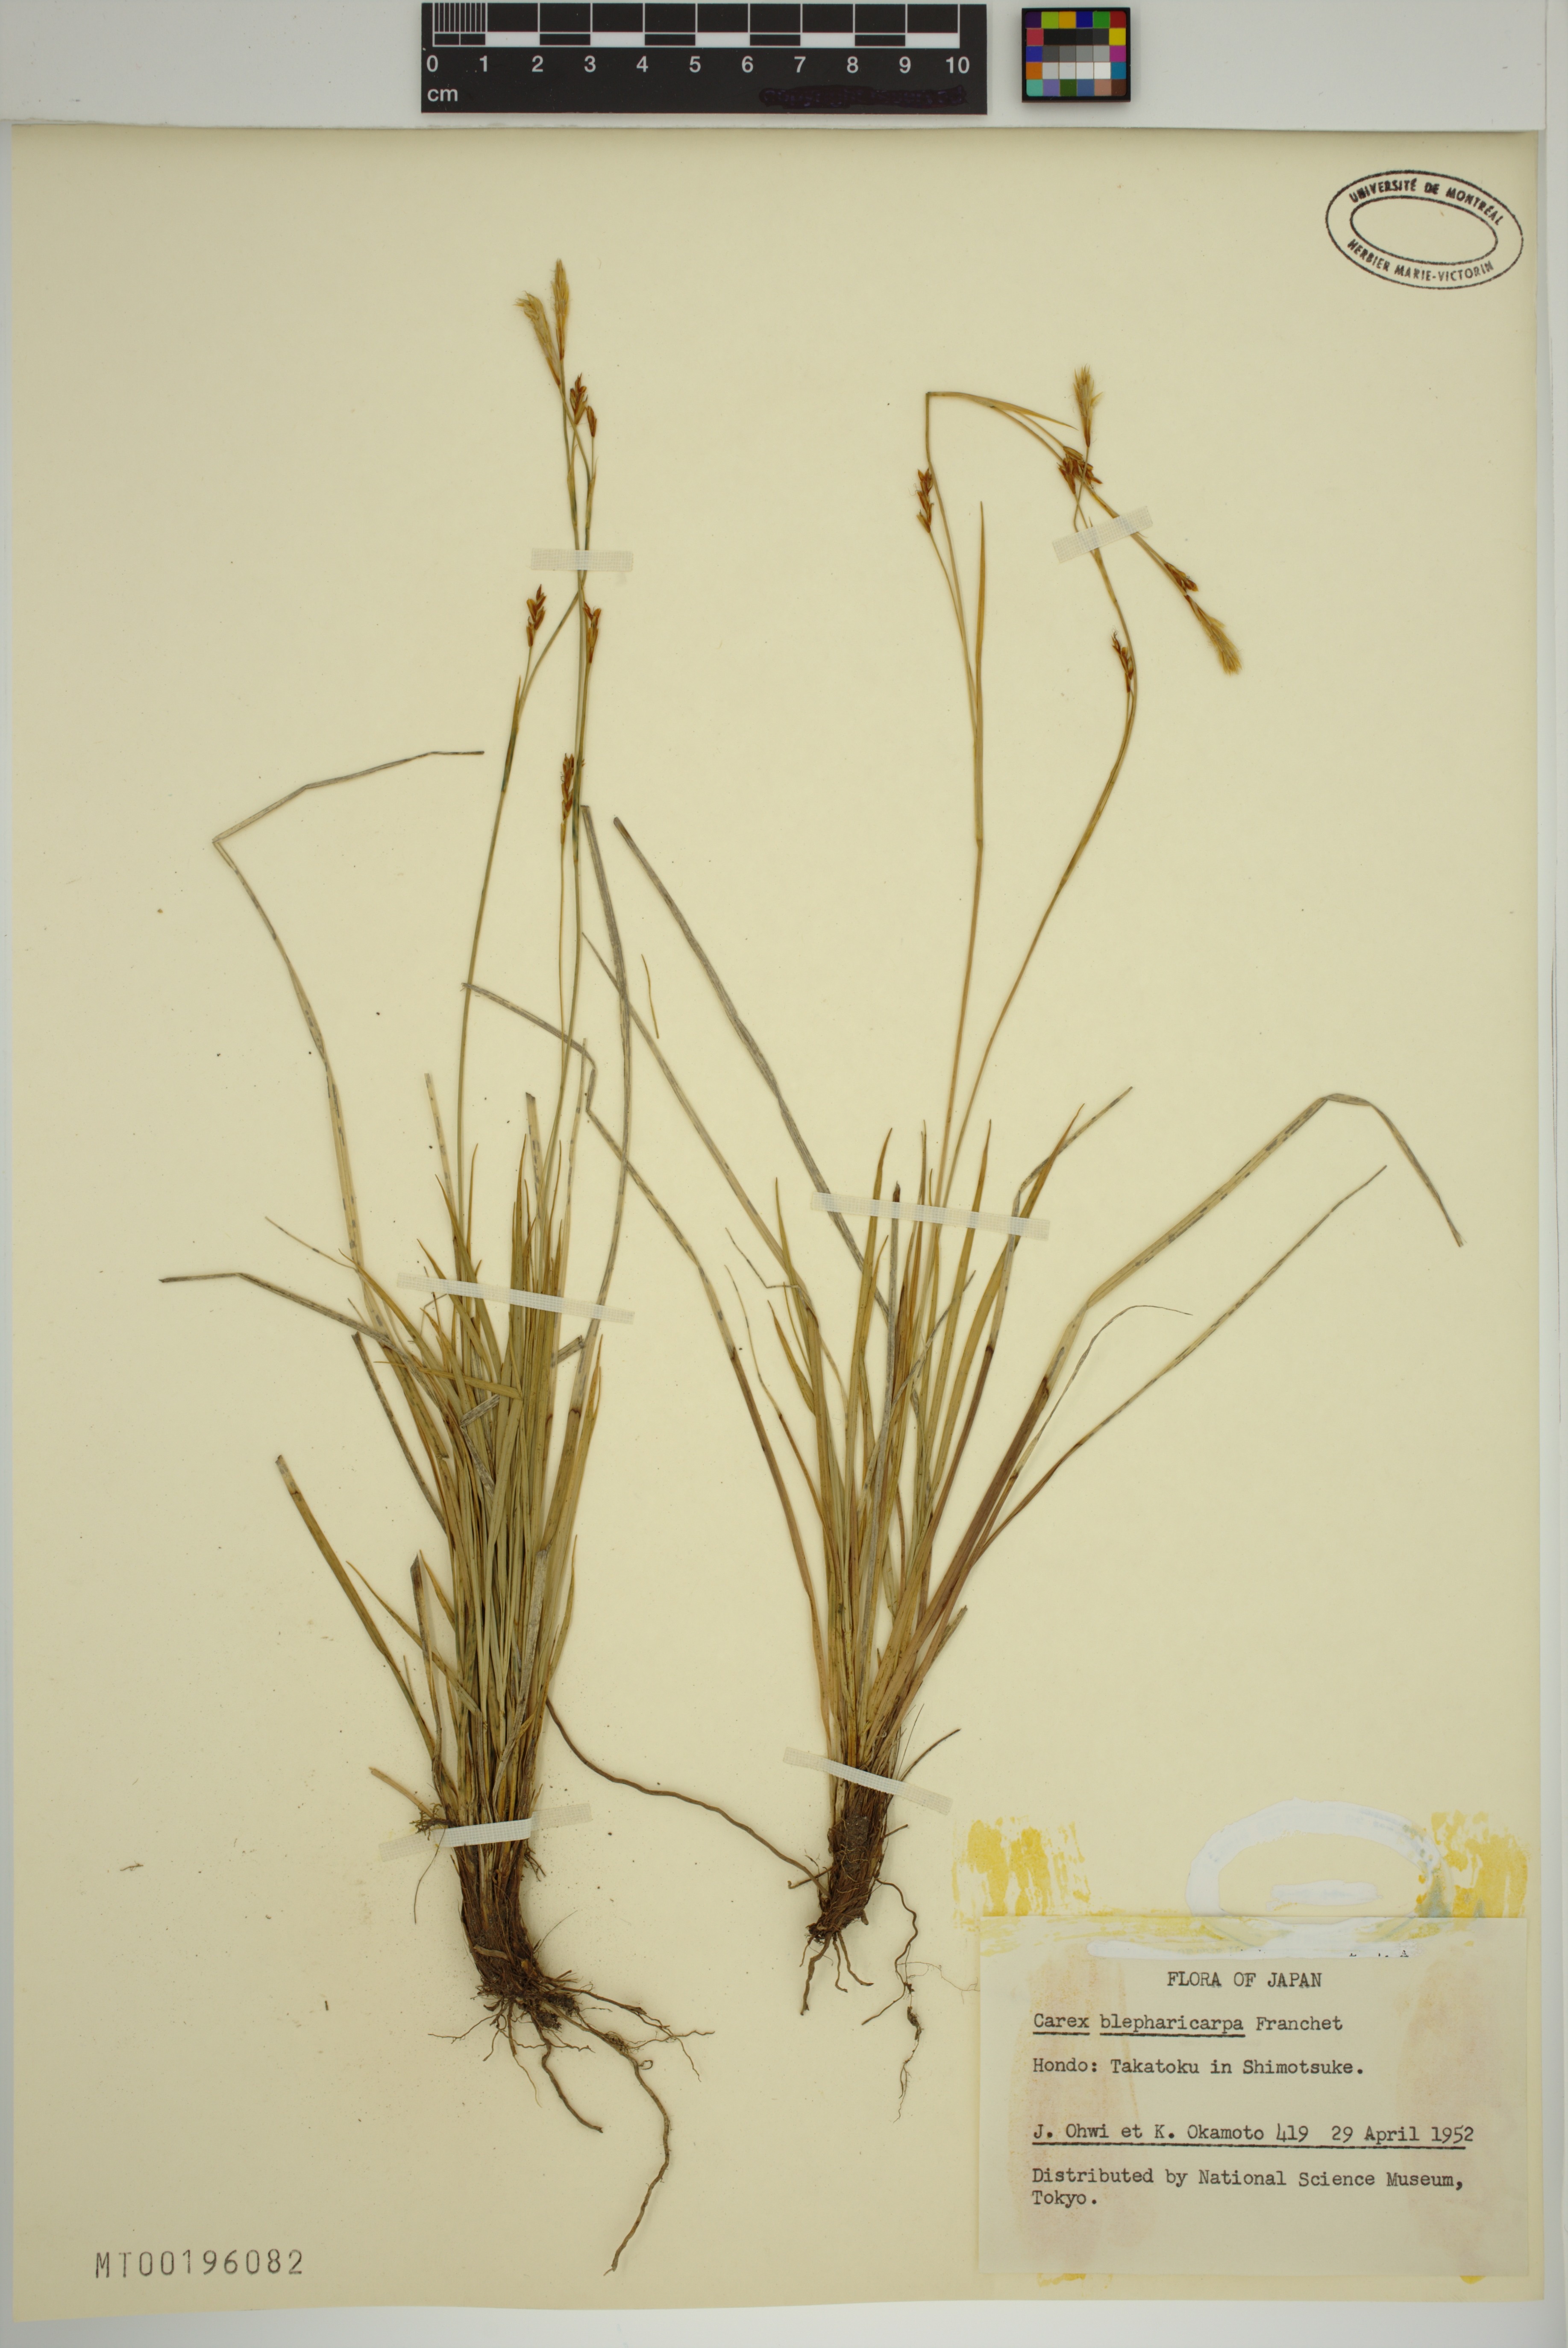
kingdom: Plantae
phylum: Tracheophyta
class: Liliopsida
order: Poales
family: Cyperaceae
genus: Carex
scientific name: Carex blepharicarpa
